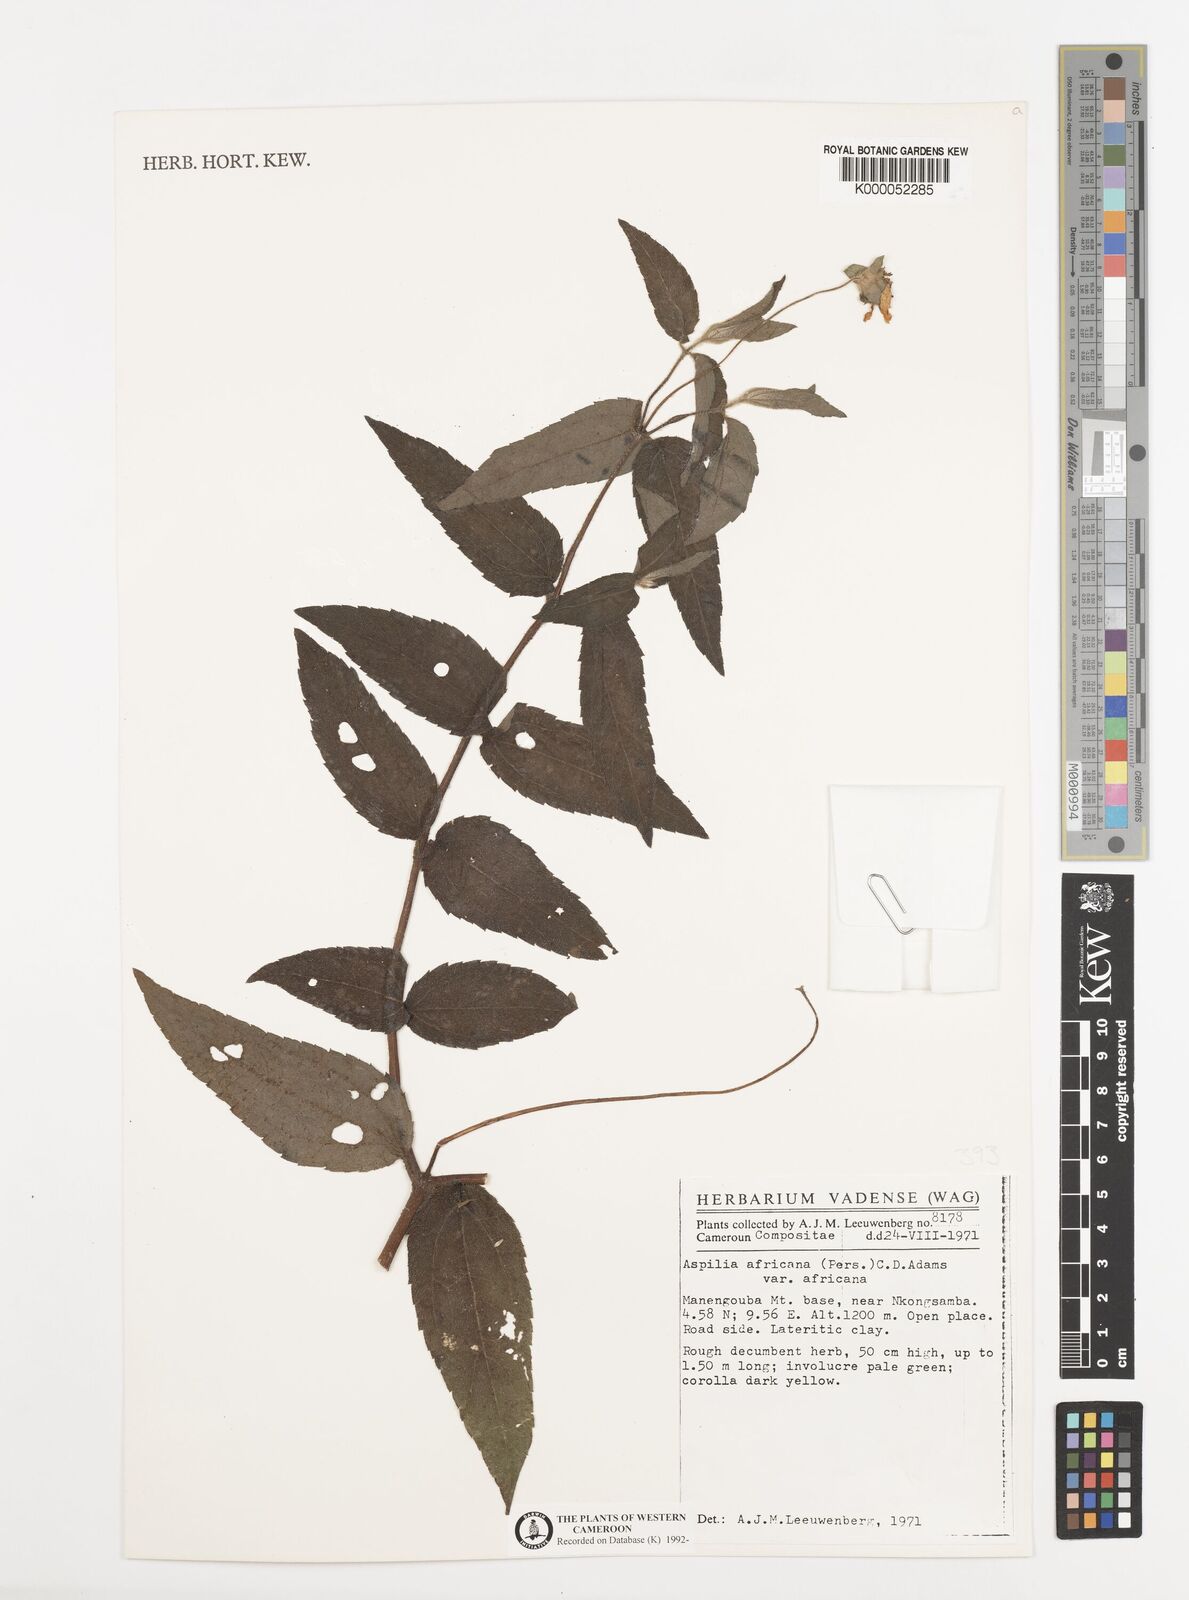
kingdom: Plantae
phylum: Tracheophyta
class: Magnoliopsida
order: Asterales
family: Asteraceae
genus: Aspilia
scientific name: Aspilia africana
